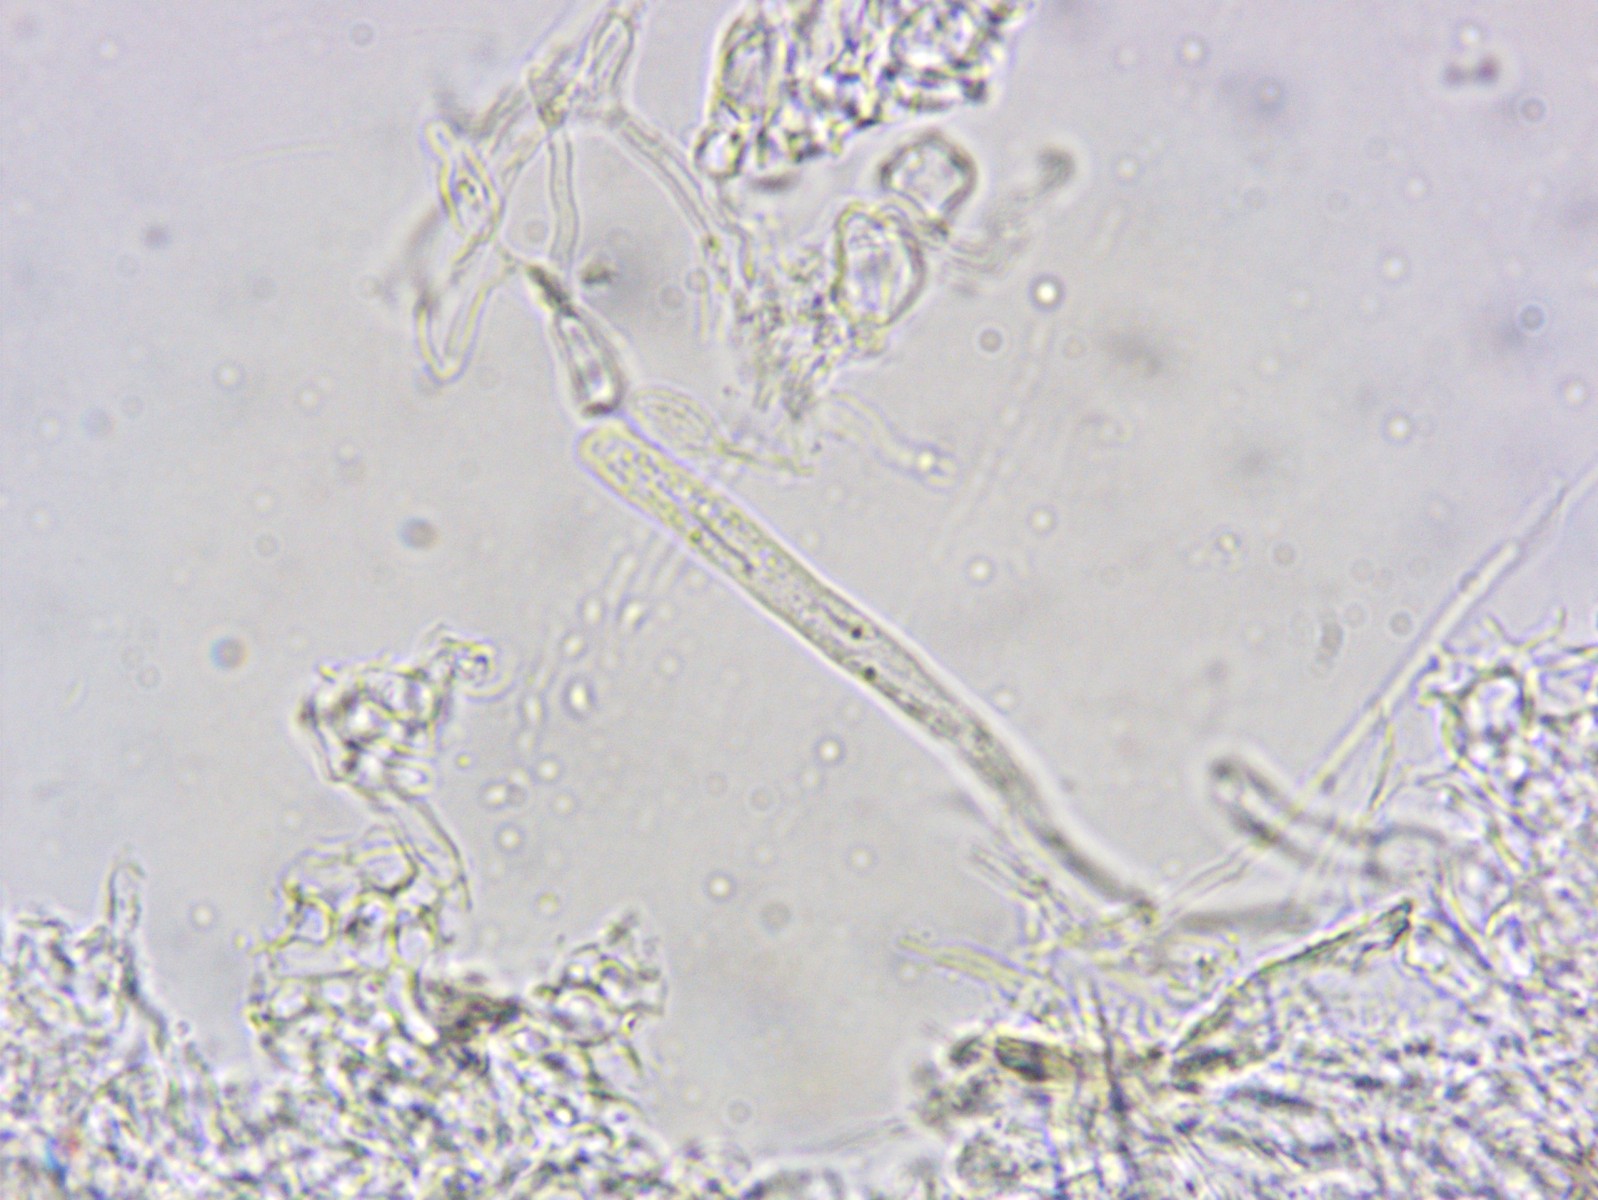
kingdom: Fungi
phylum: Ascomycota
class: Orbiliomycetes
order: Orbiliales
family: Orbiliaceae
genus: Orbilia
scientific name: Orbilia carpoboloides
